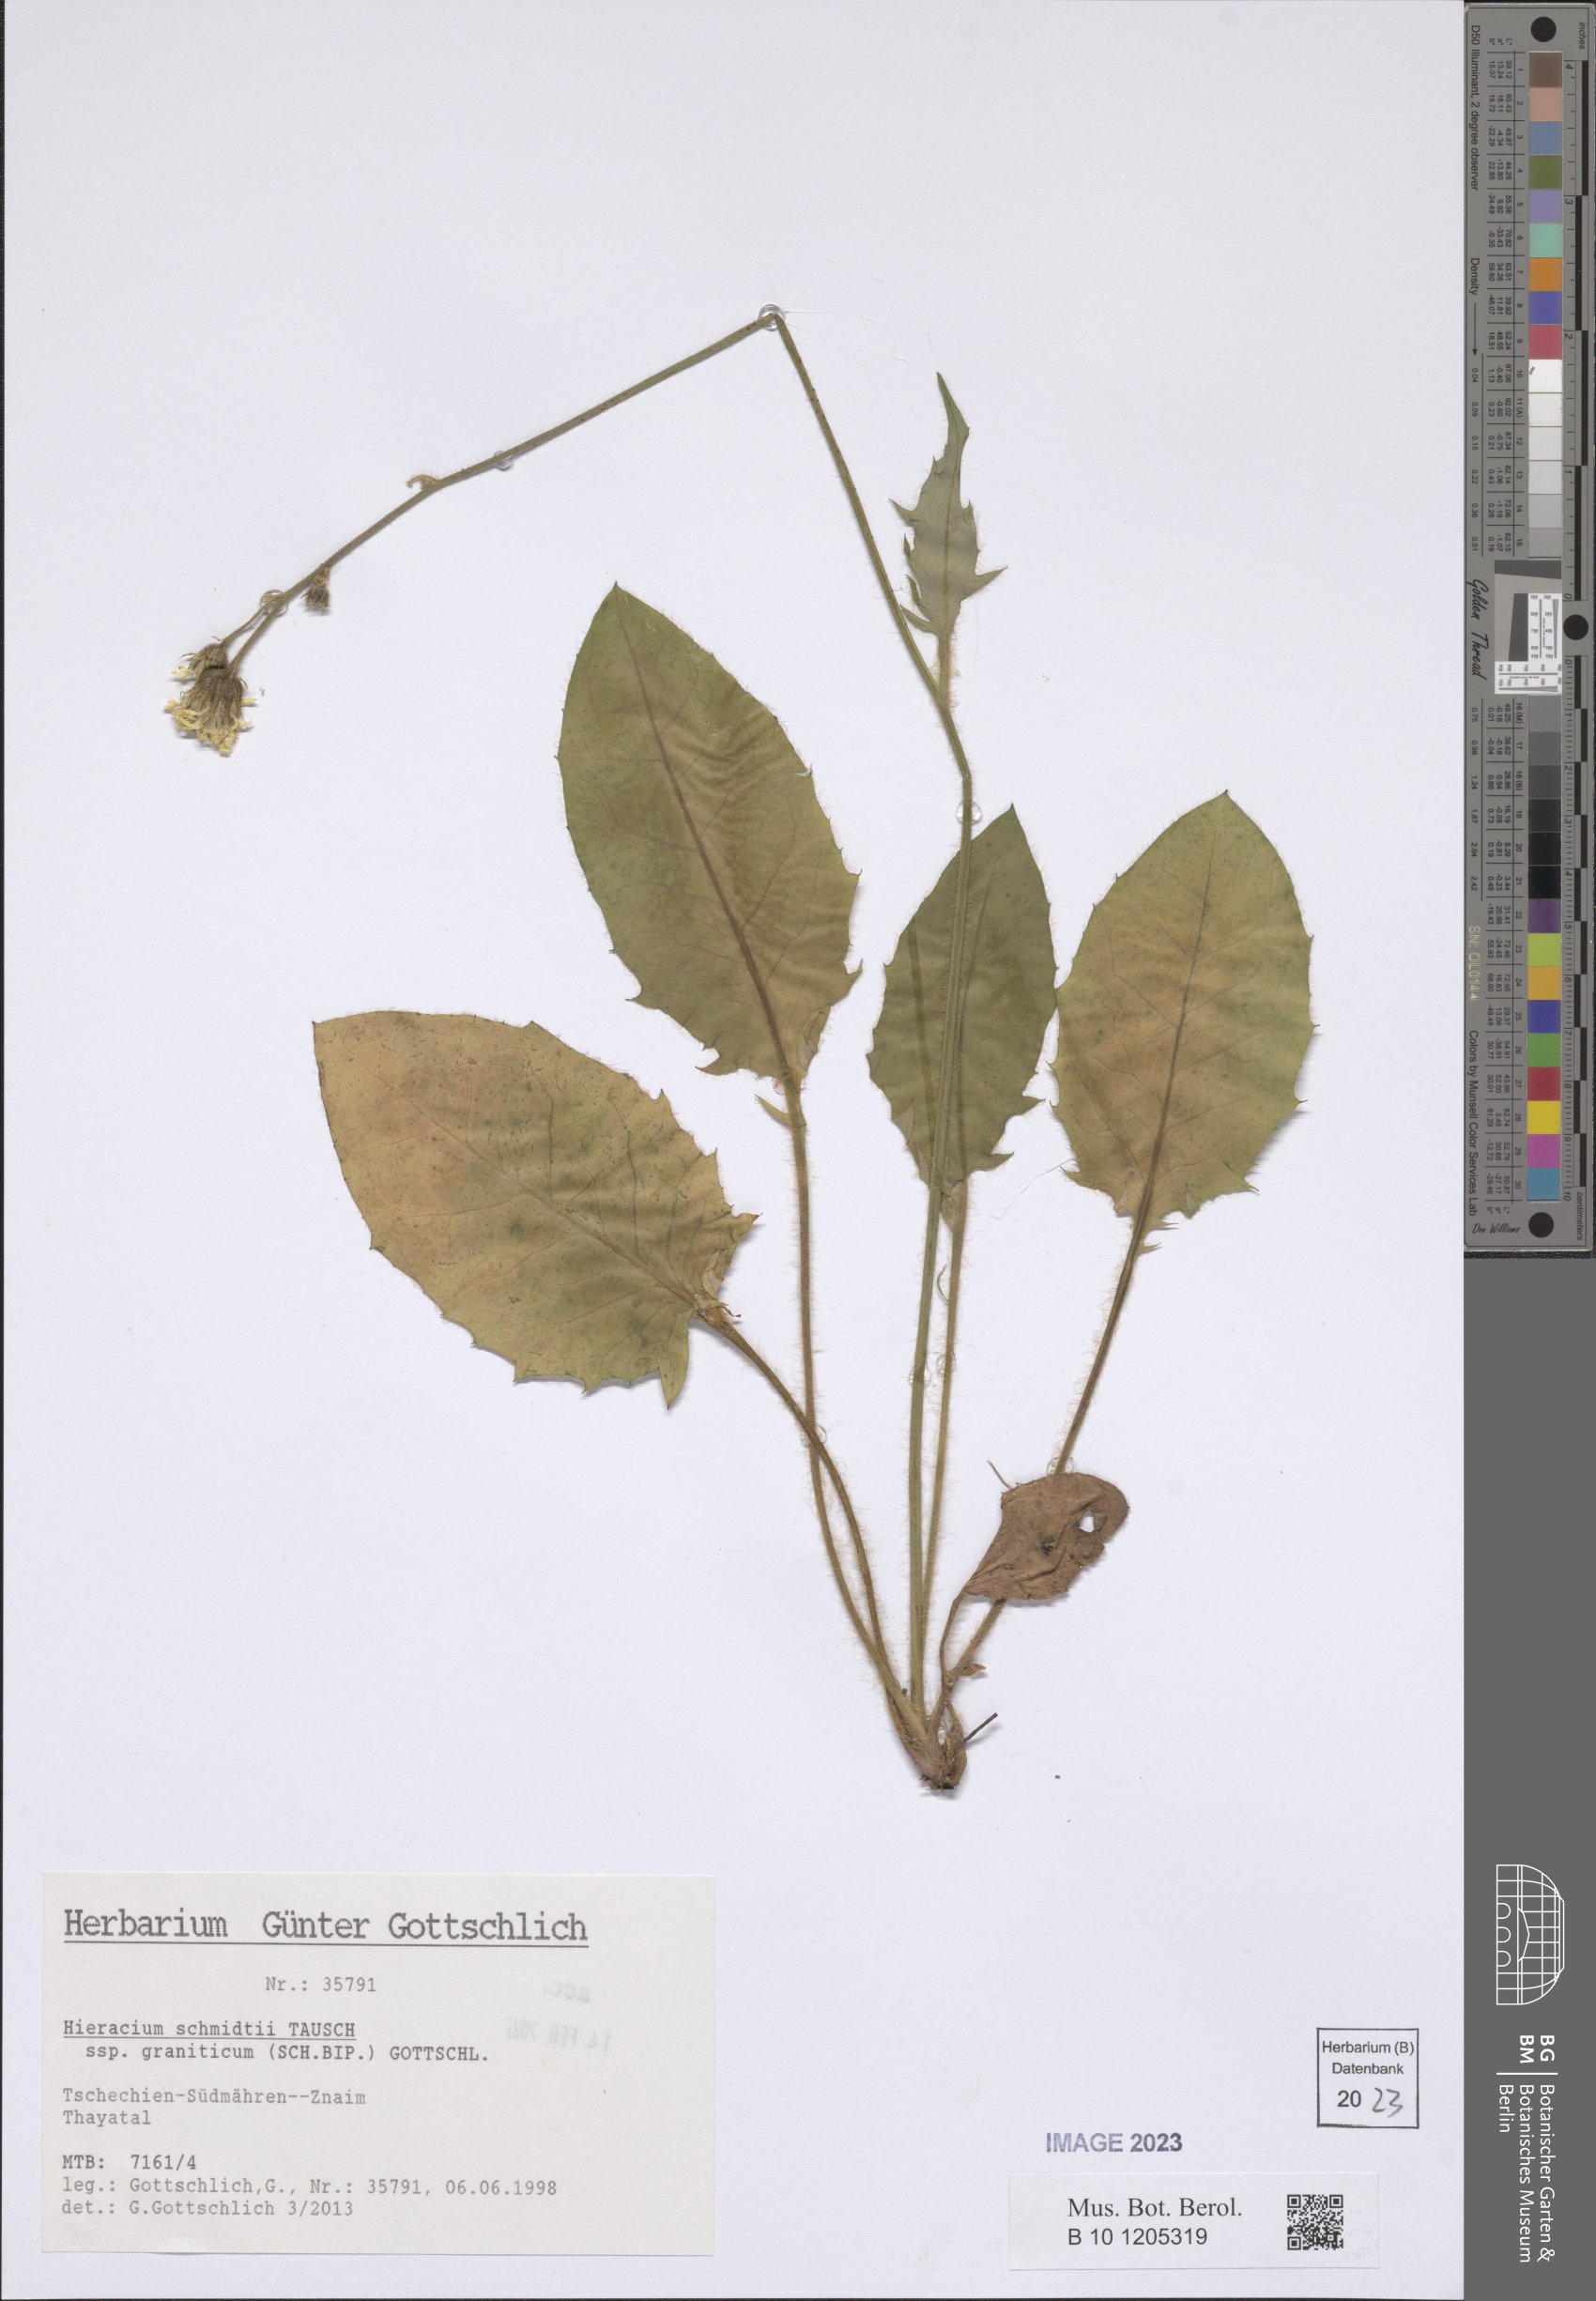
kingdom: Plantae
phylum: Tracheophyta
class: Magnoliopsida
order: Asterales
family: Asteraceae
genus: Hieracium
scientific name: Hieracium schmidtii
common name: Schmidt's hawkweed
